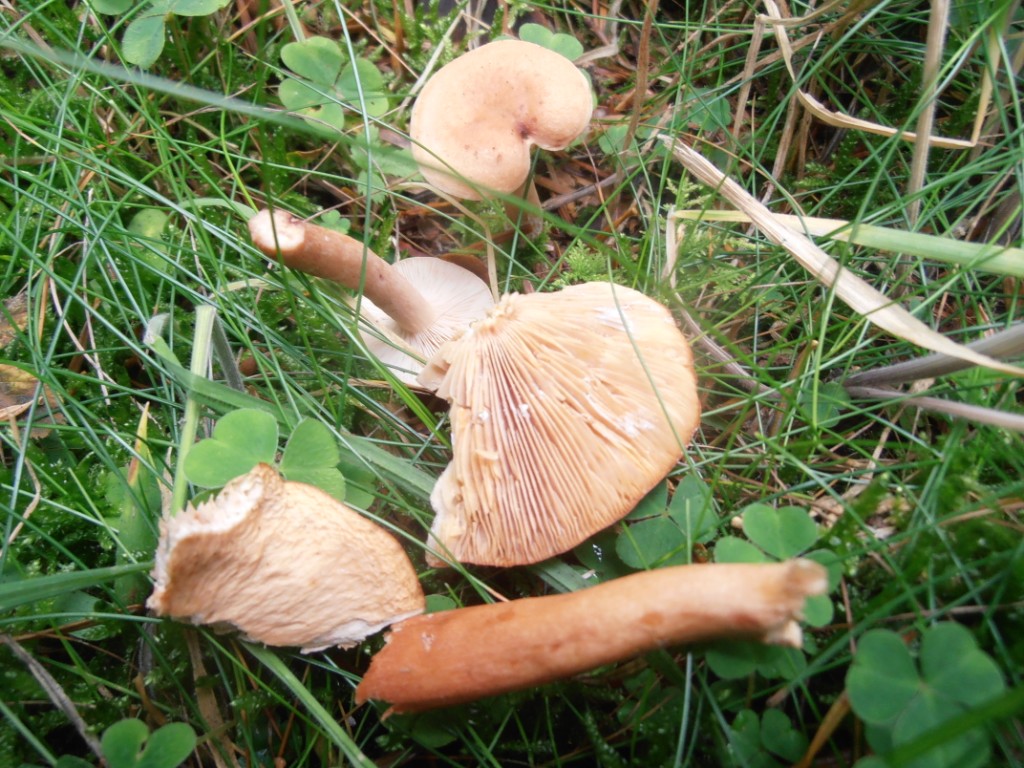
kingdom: Fungi
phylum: Basidiomycota
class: Agaricomycetes
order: Russulales
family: Russulaceae
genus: Lactarius
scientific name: Lactarius tabidus
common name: rynket mælkehat
